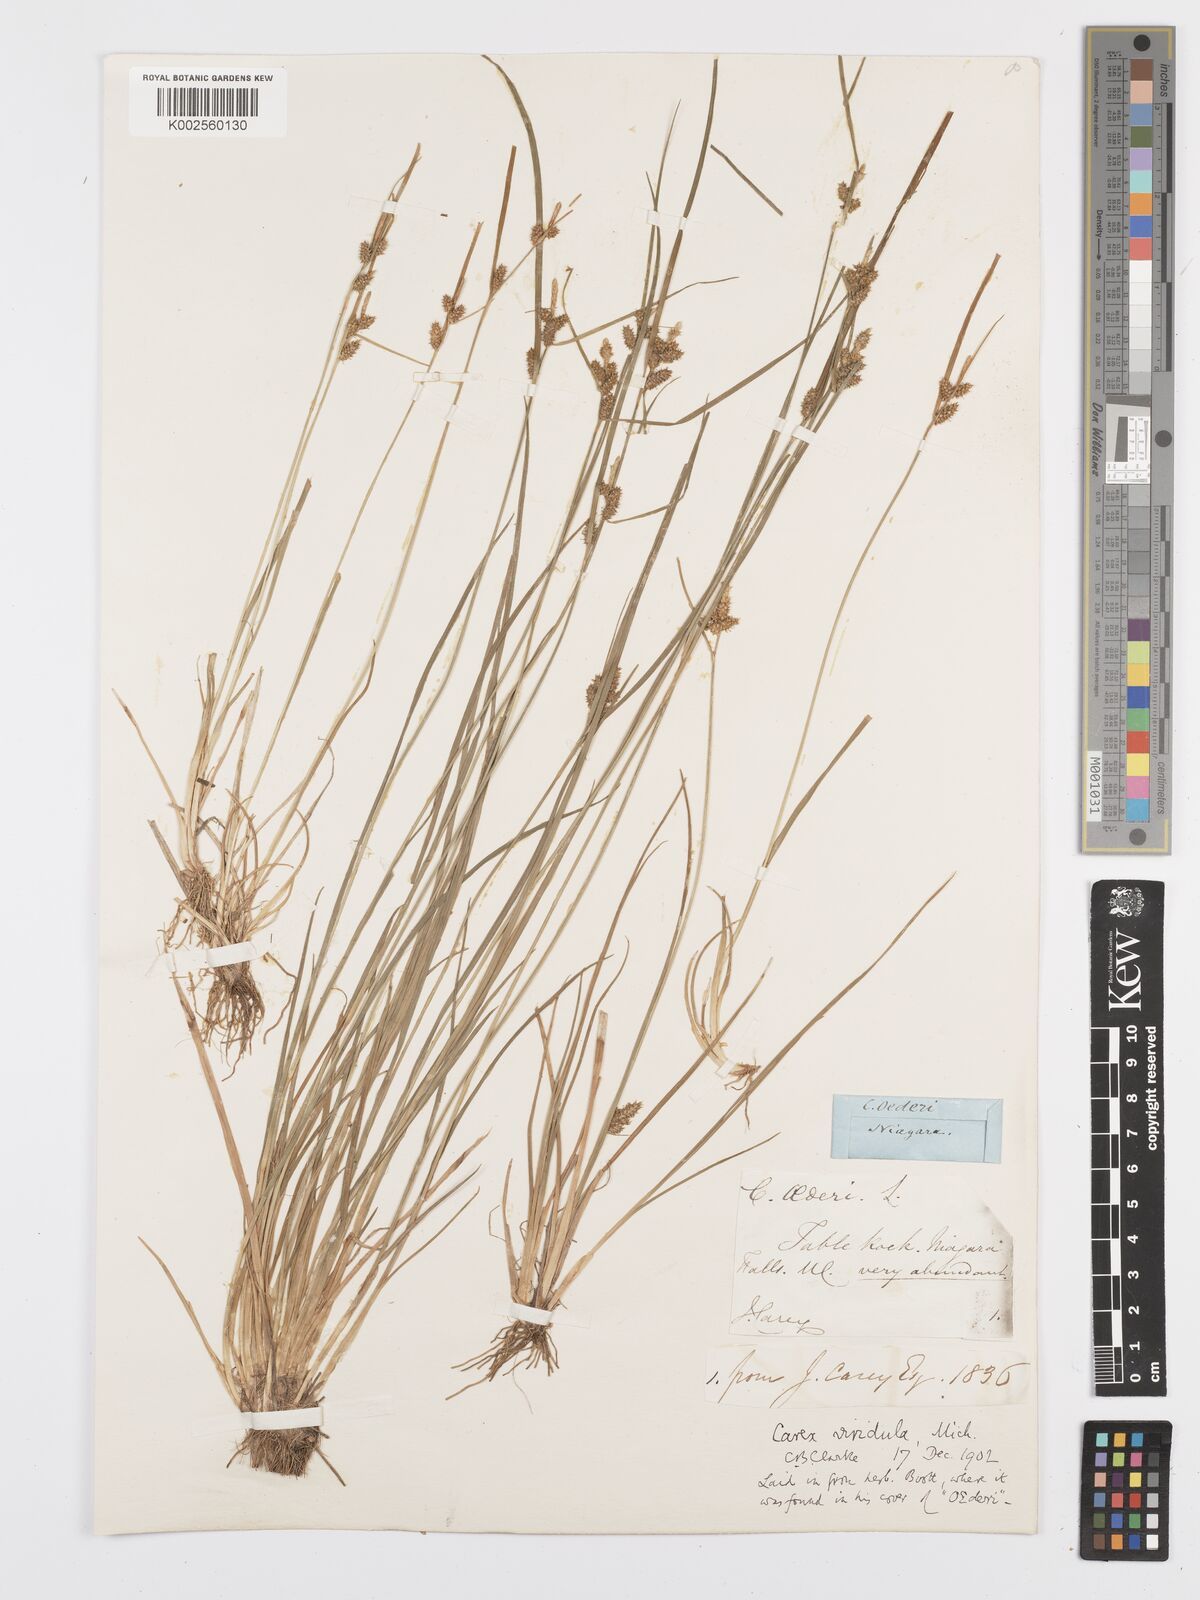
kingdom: Plantae
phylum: Tracheophyta
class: Liliopsida
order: Poales
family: Cyperaceae
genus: Carex
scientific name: Carex oederi
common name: Common & small-fruited yellow-sedge
